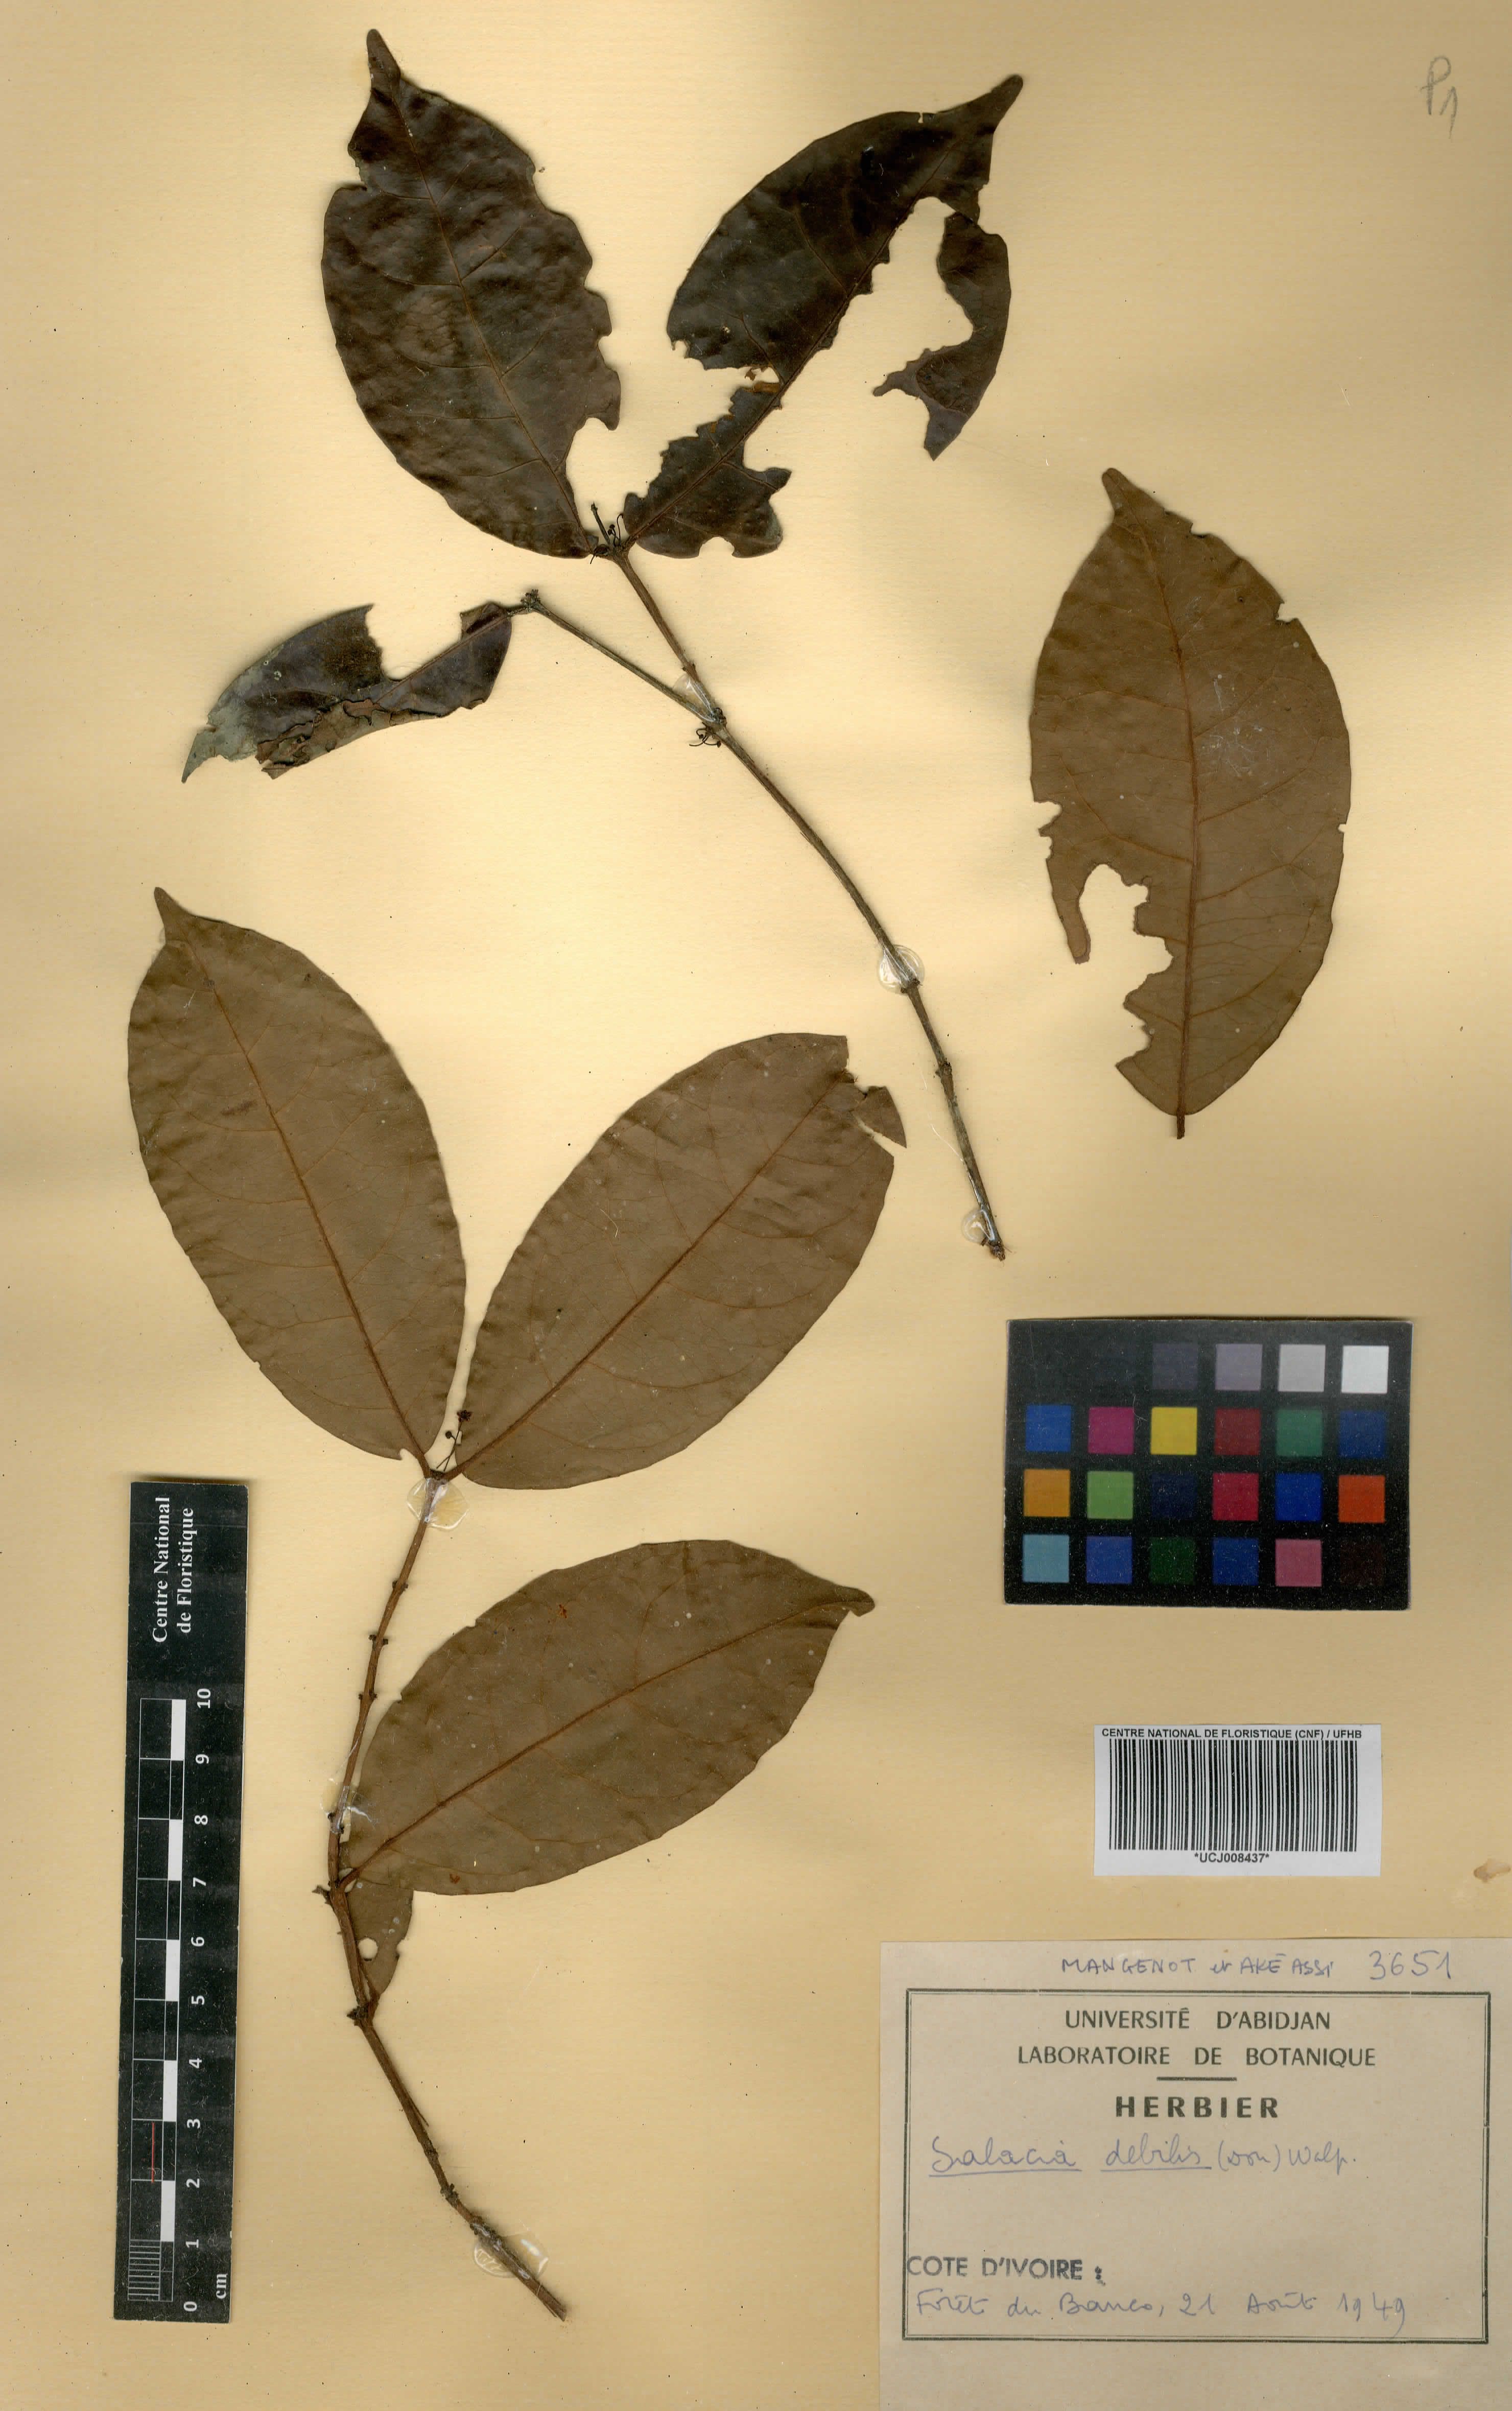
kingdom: Plantae
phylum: Tracheophyta
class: Magnoliopsida
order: Celastrales
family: Celastraceae
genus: Salacia
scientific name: Salacia debilis
